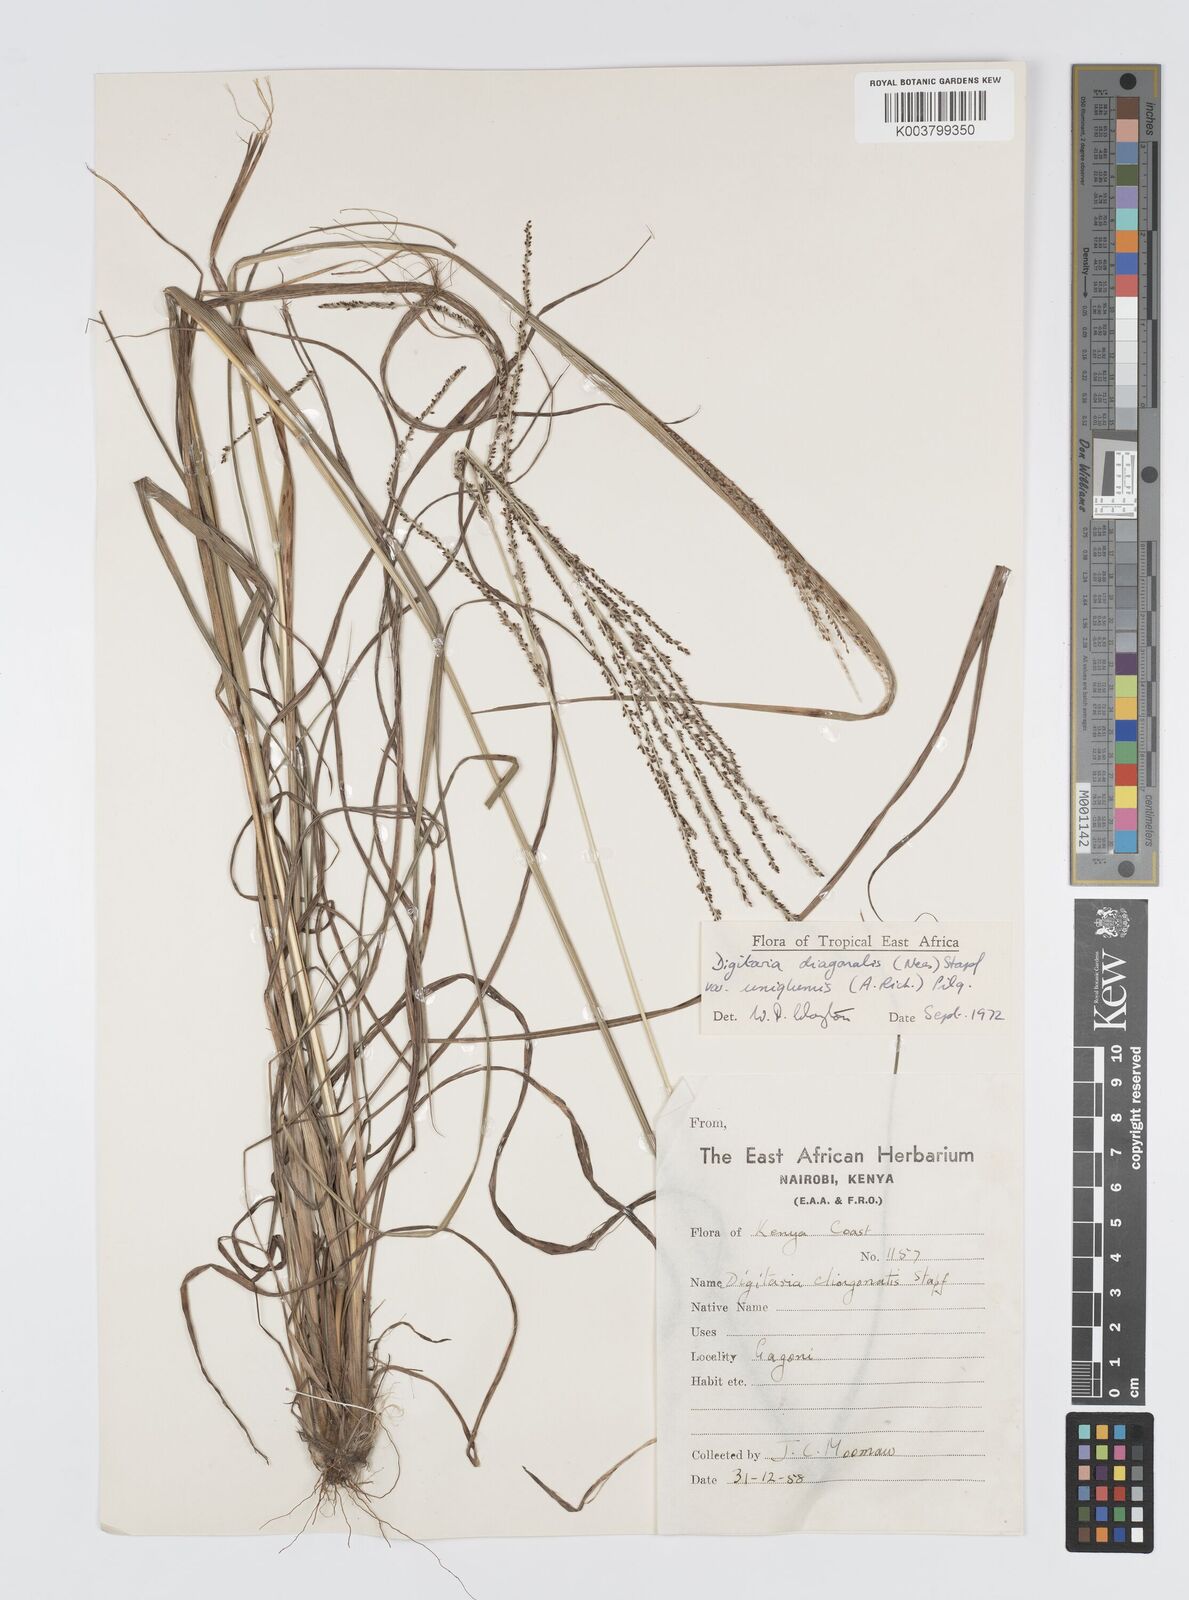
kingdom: Plantae
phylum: Tracheophyta
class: Liliopsida
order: Poales
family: Poaceae
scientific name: Poaceae
